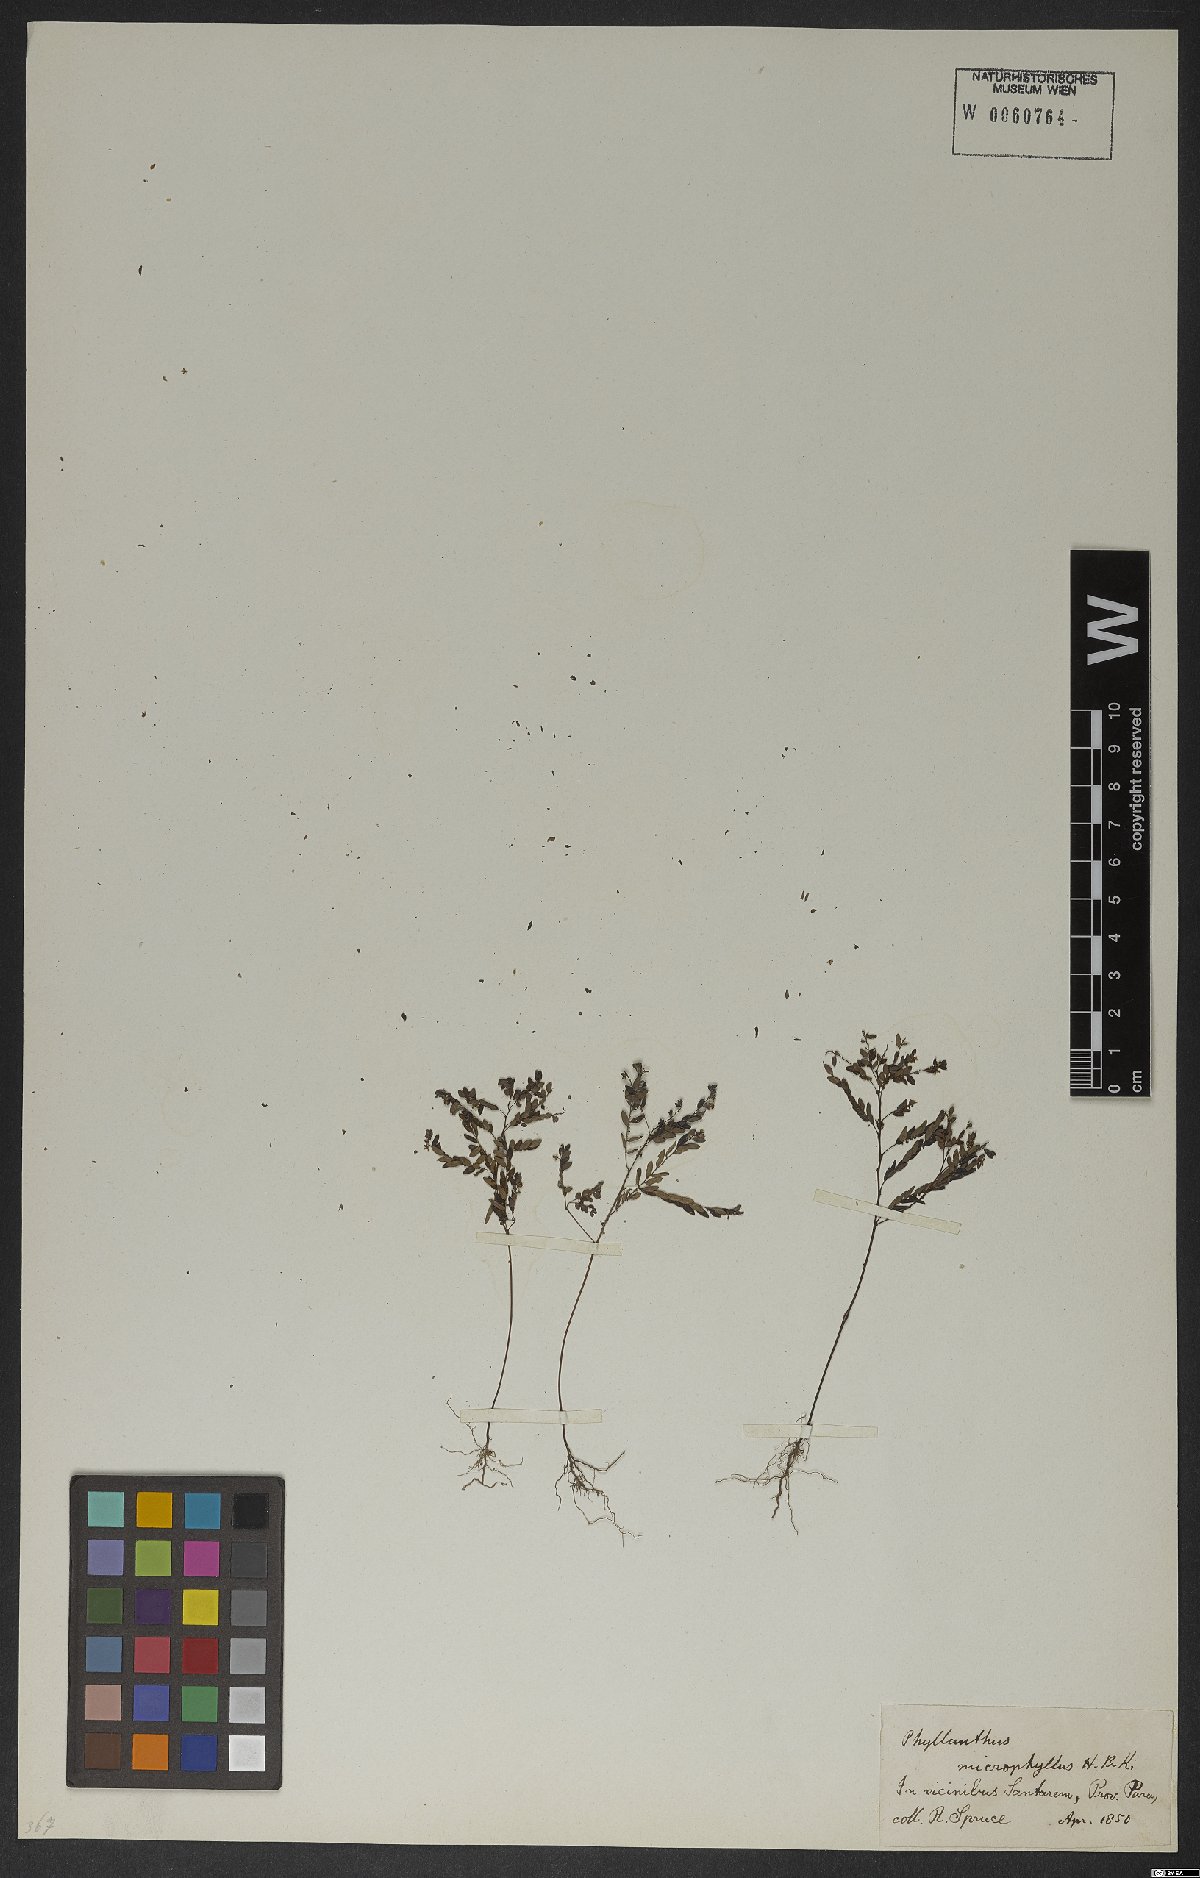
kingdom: Plantae
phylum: Tracheophyta
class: Magnoliopsida
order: Malpighiales
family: Phyllanthaceae
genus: Phyllanthus
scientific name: Phyllanthus microphyllus
